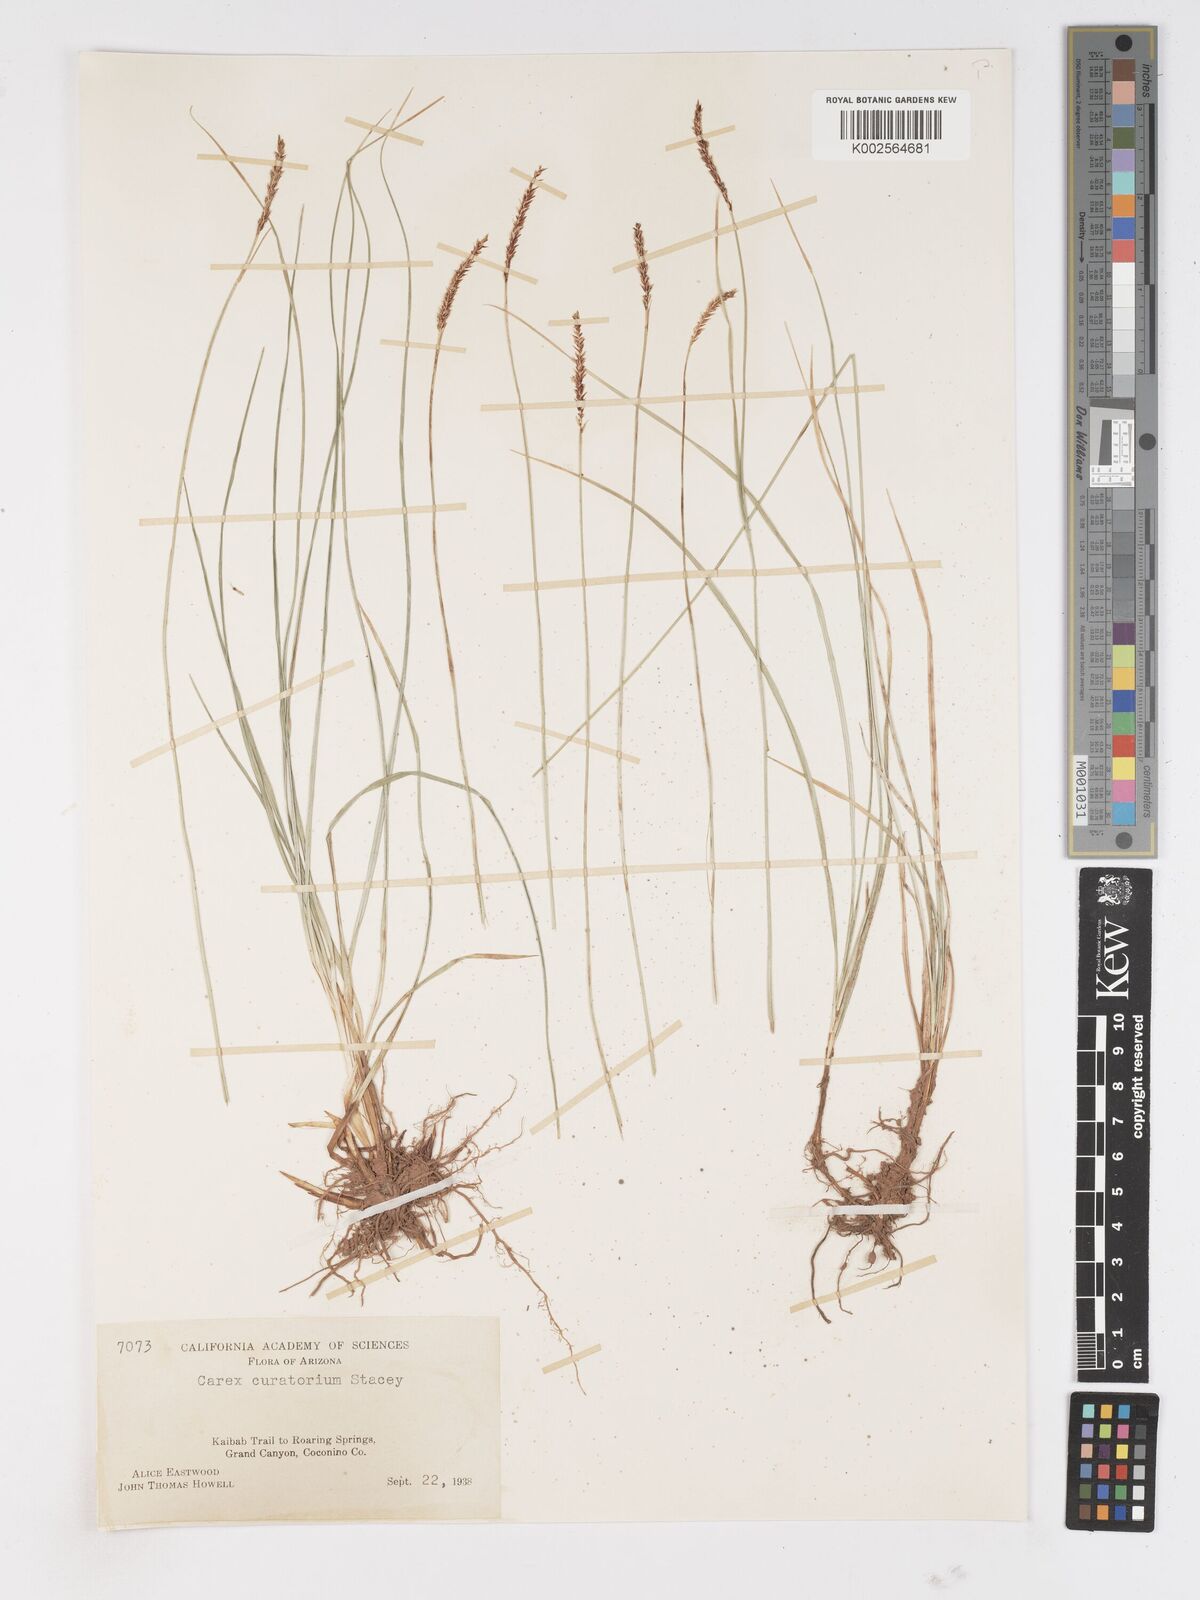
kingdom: Plantae
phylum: Tracheophyta
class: Liliopsida
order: Poales
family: Cyperaceae
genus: Carex
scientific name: Carex curatorum
